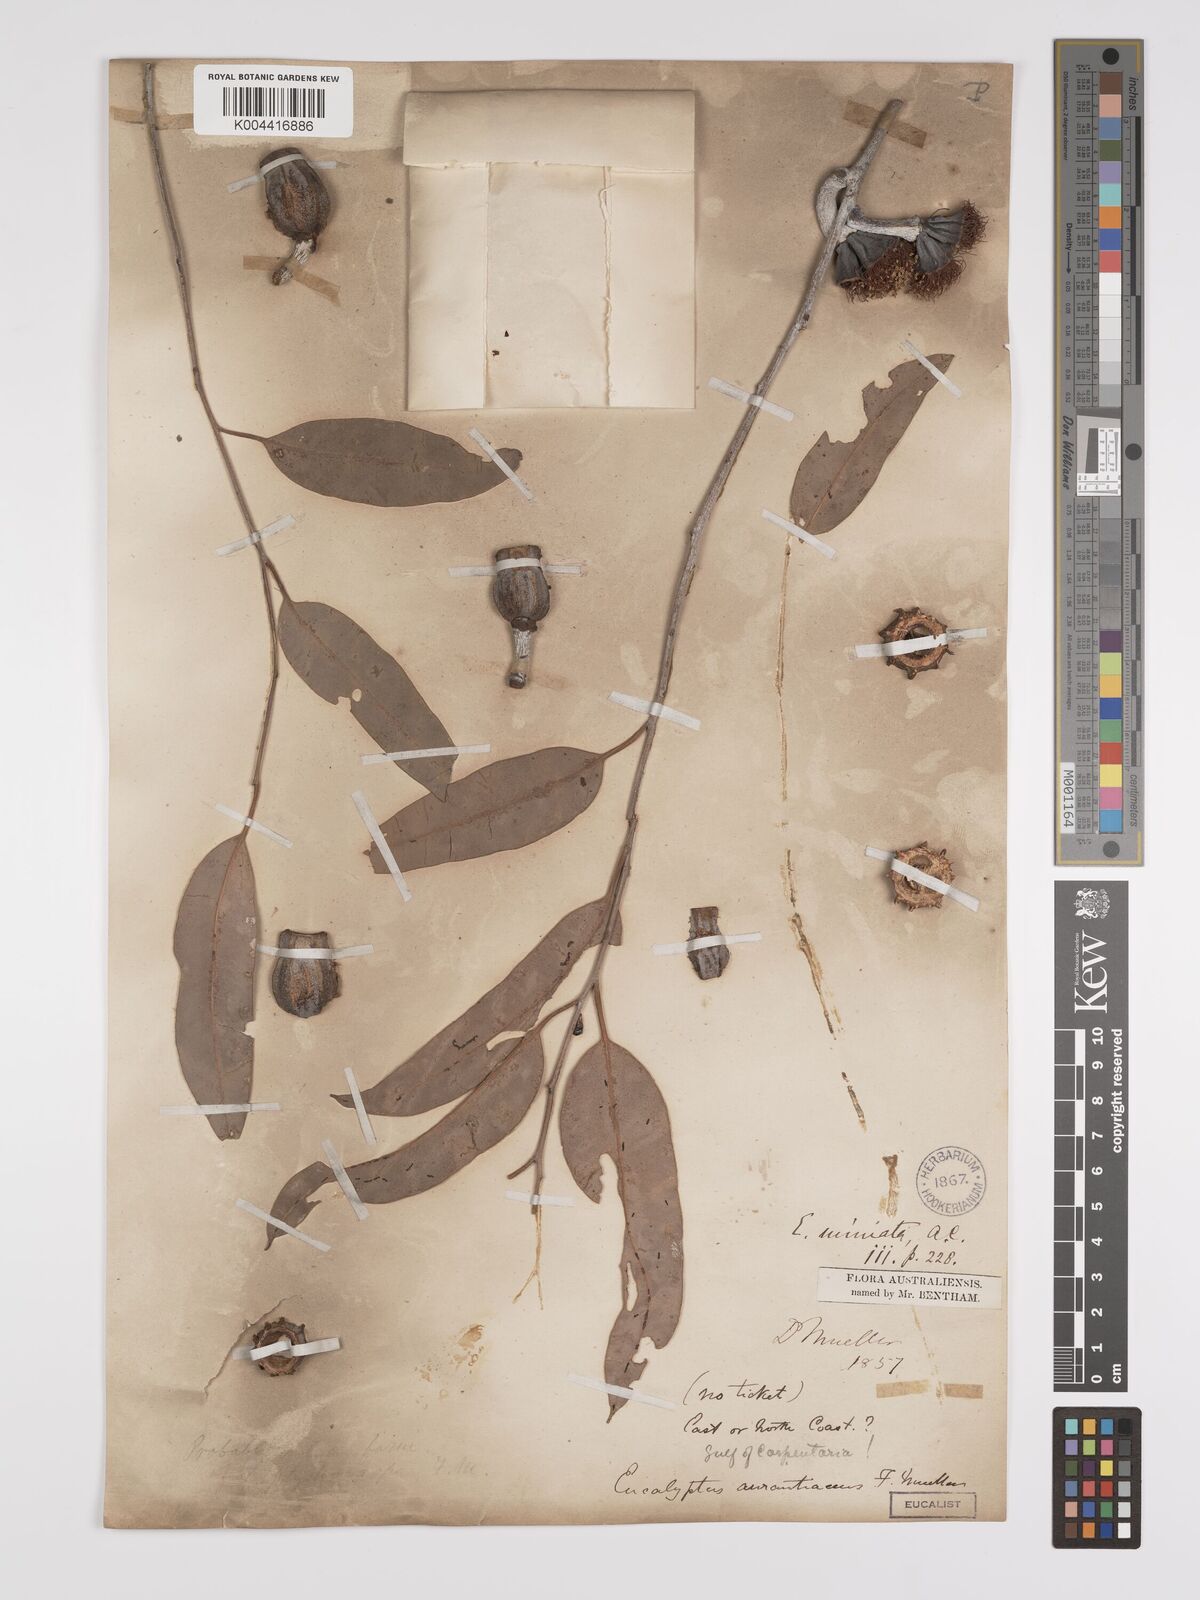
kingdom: Plantae
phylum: Tracheophyta
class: Magnoliopsida
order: Myrtales
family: Myrtaceae
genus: Eucalyptus
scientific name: Eucalyptus miniata
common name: Darwin-woollybutt
